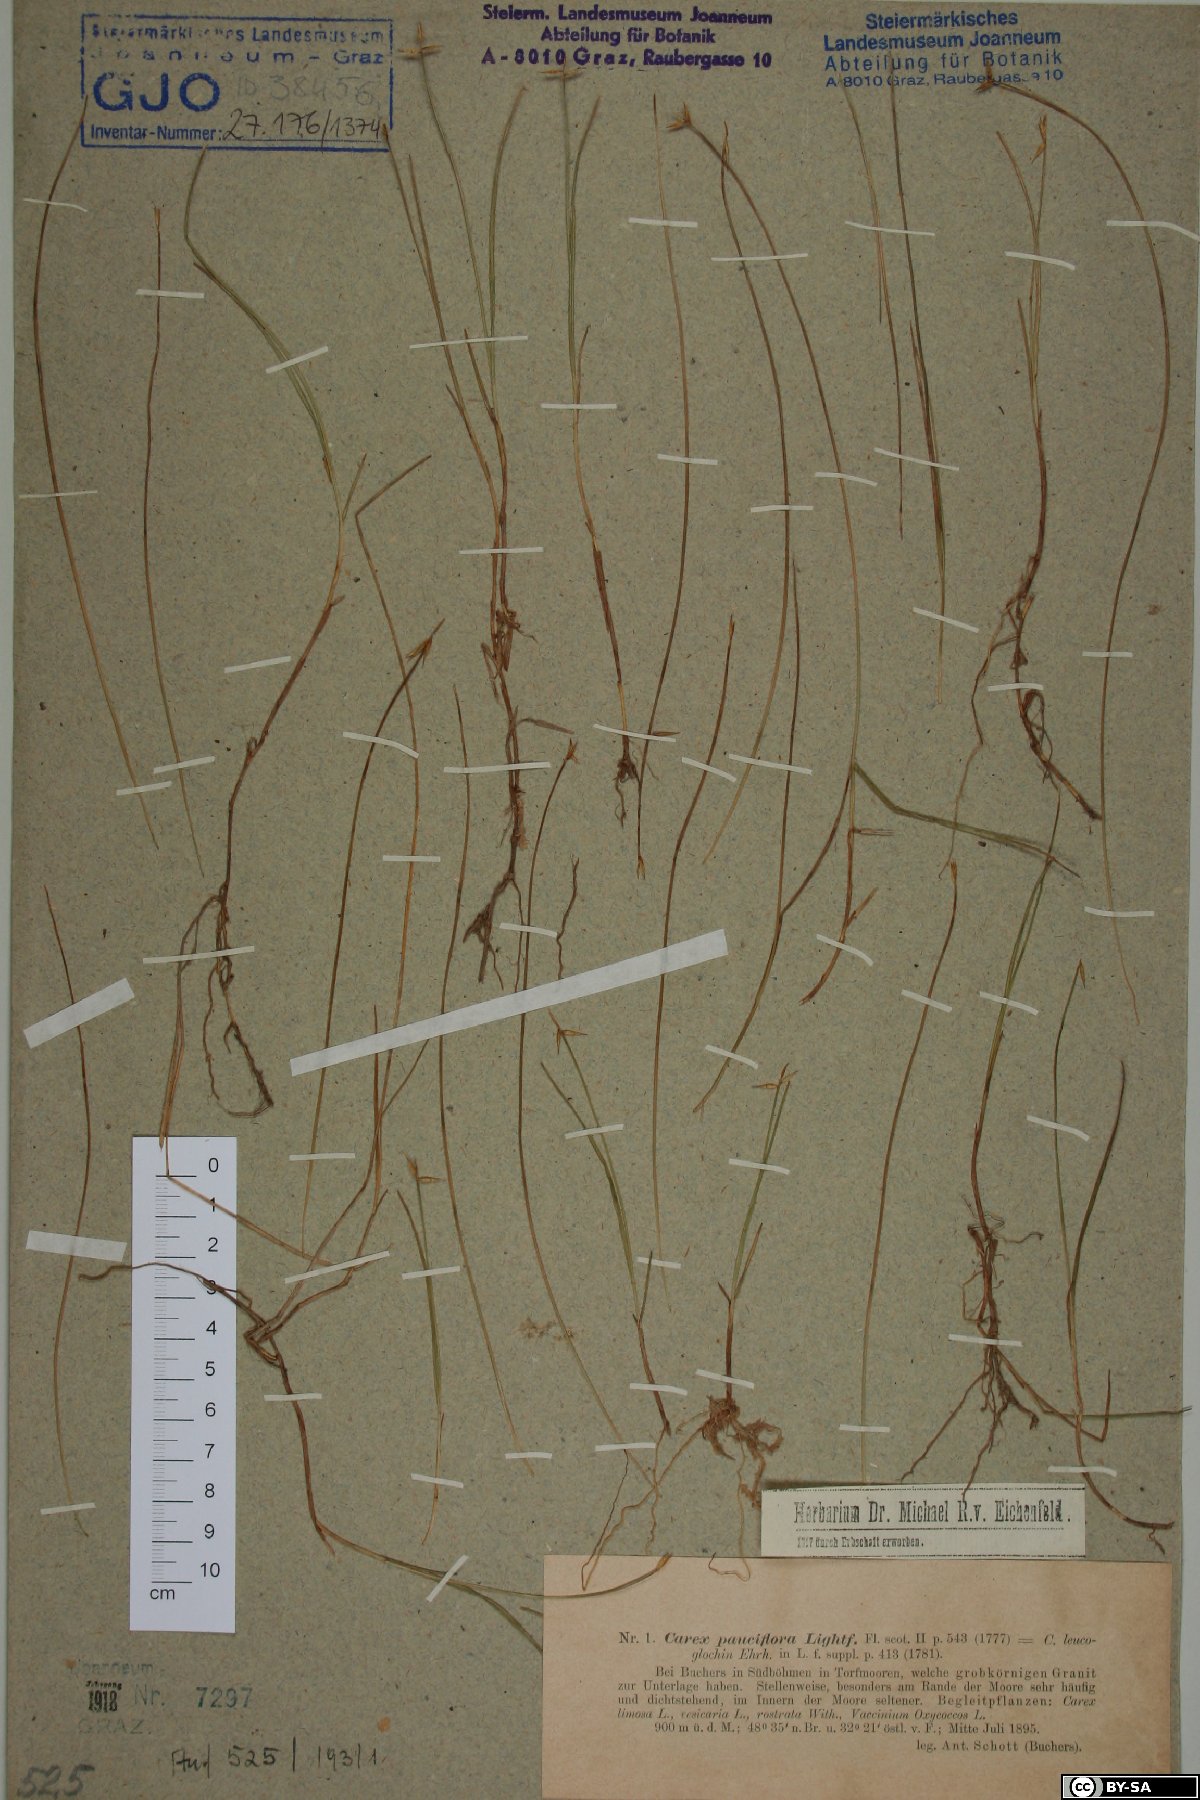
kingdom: Plantae
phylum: Tracheophyta
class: Liliopsida
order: Poales
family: Cyperaceae
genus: Carex
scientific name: Carex pauciflora
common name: Few-flowered sedge
